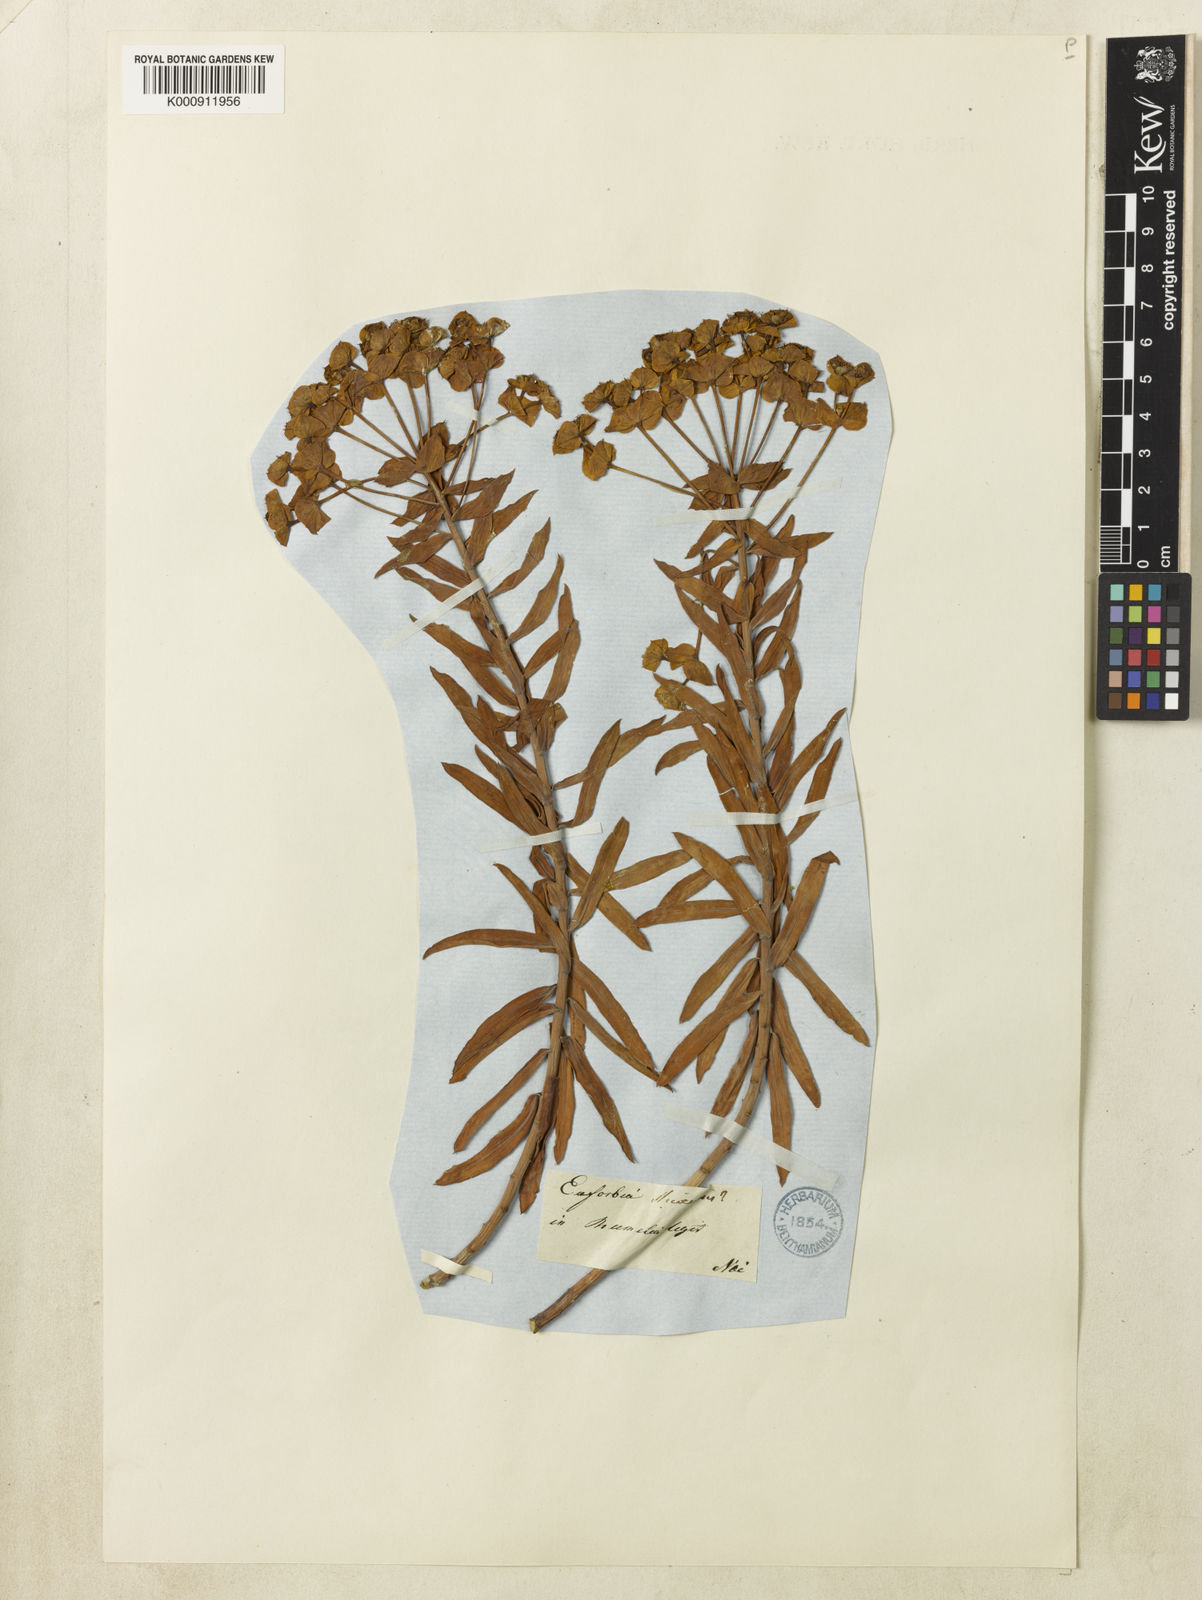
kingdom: Plantae
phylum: Tracheophyta
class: Magnoliopsida
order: Malpighiales
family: Euphorbiaceae
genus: Euphorbia
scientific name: Euphorbia glareosa
